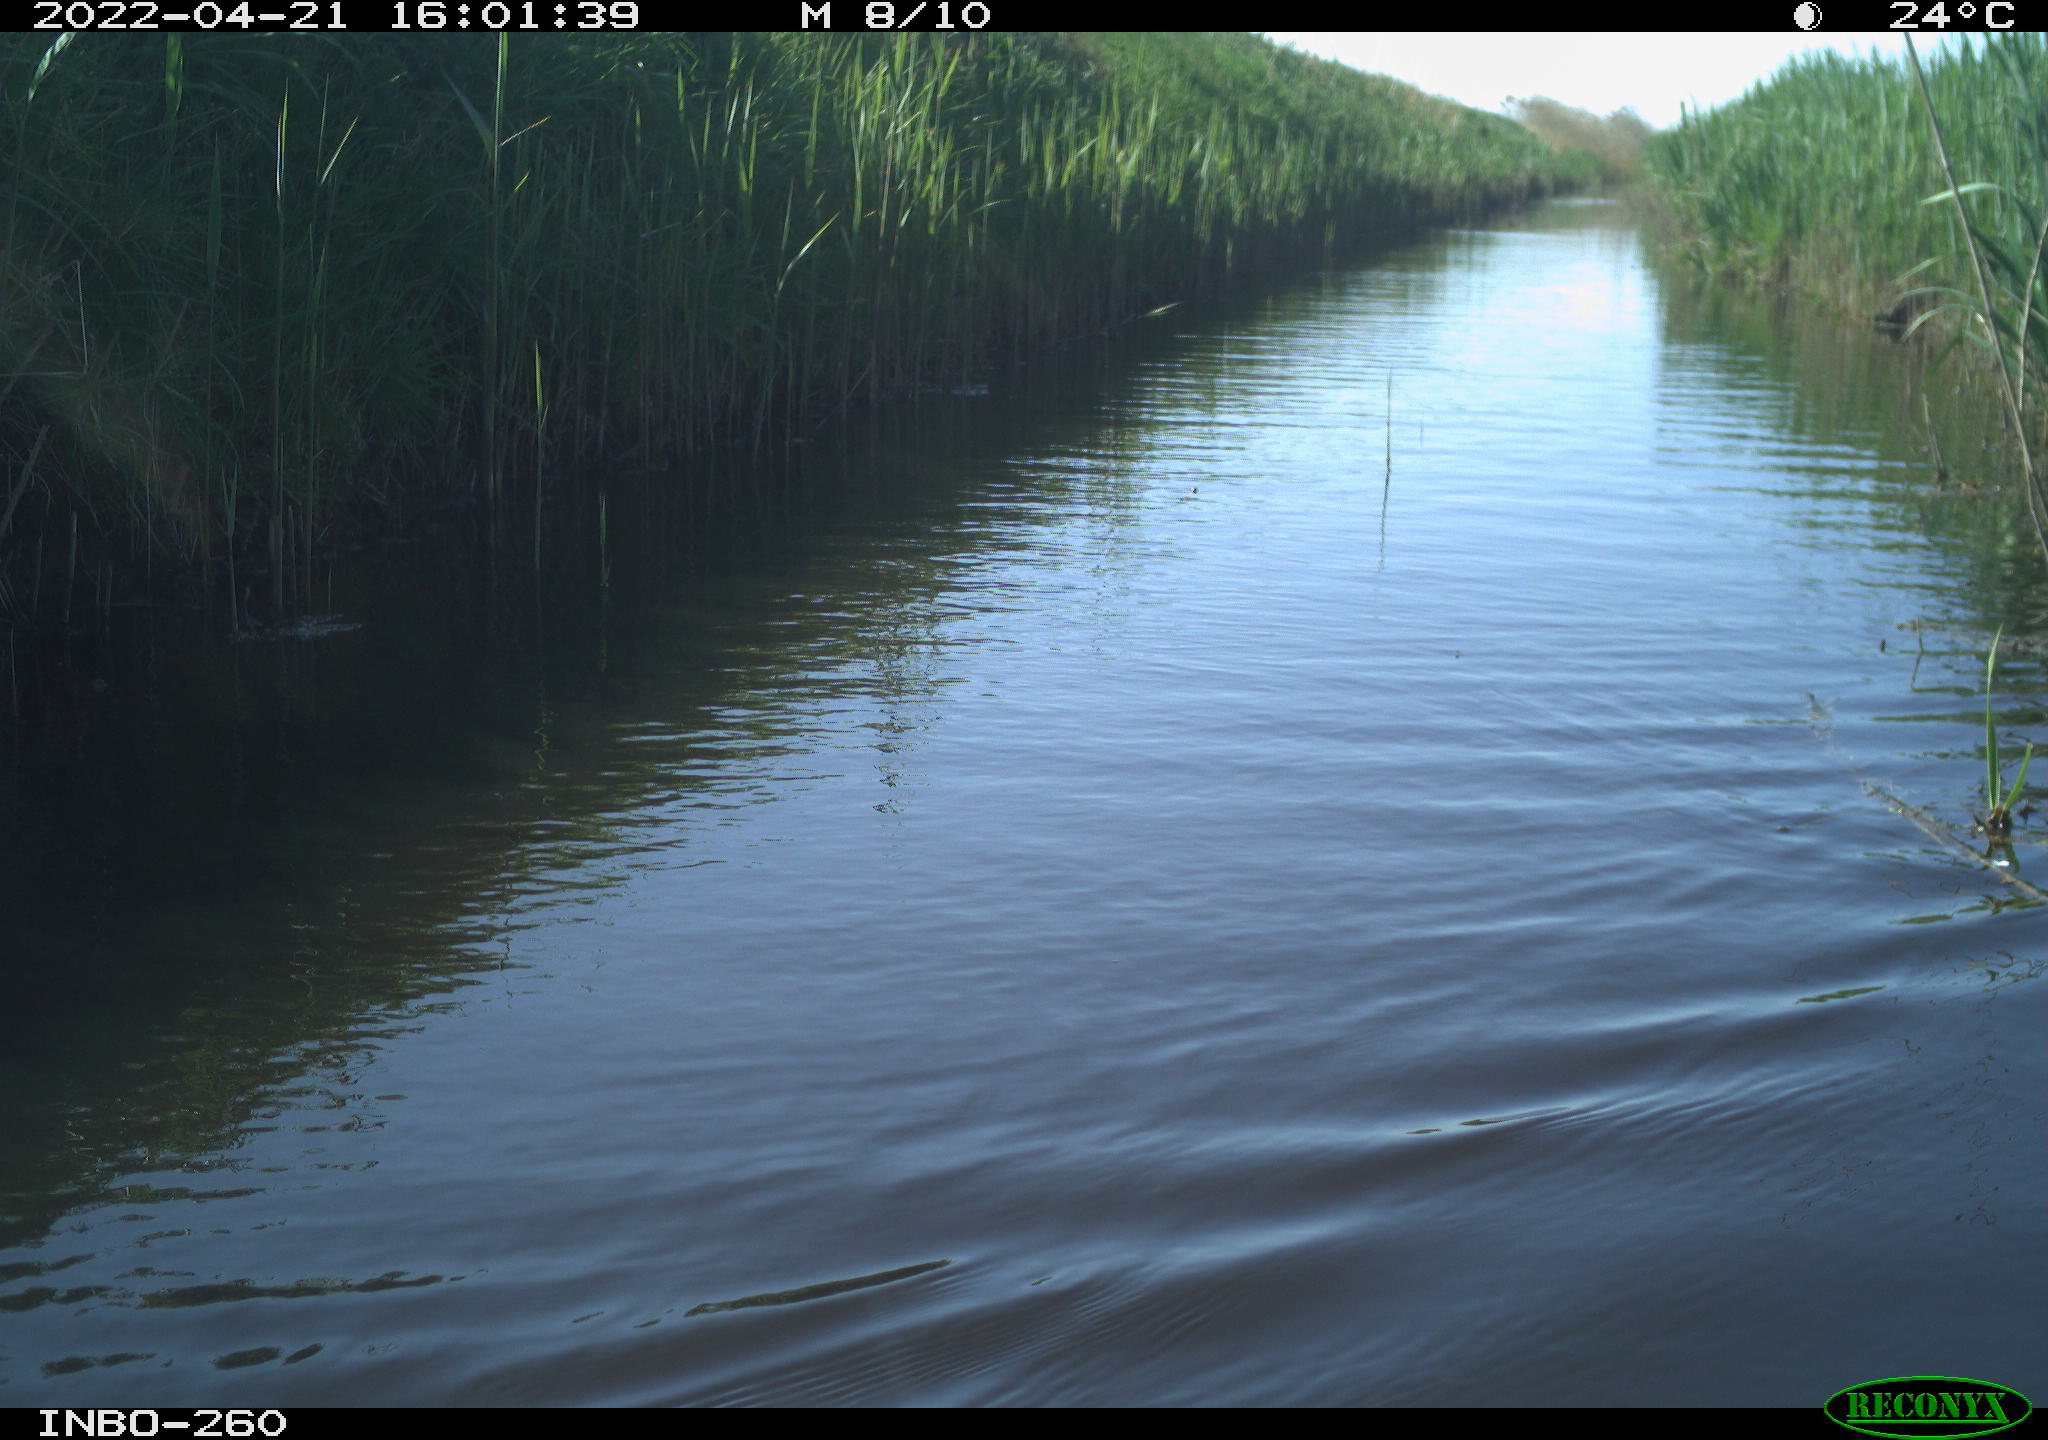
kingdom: Animalia
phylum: Chordata
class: Aves
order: Gruiformes
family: Rallidae
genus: Fulica
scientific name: Fulica atra
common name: Eurasian coot
